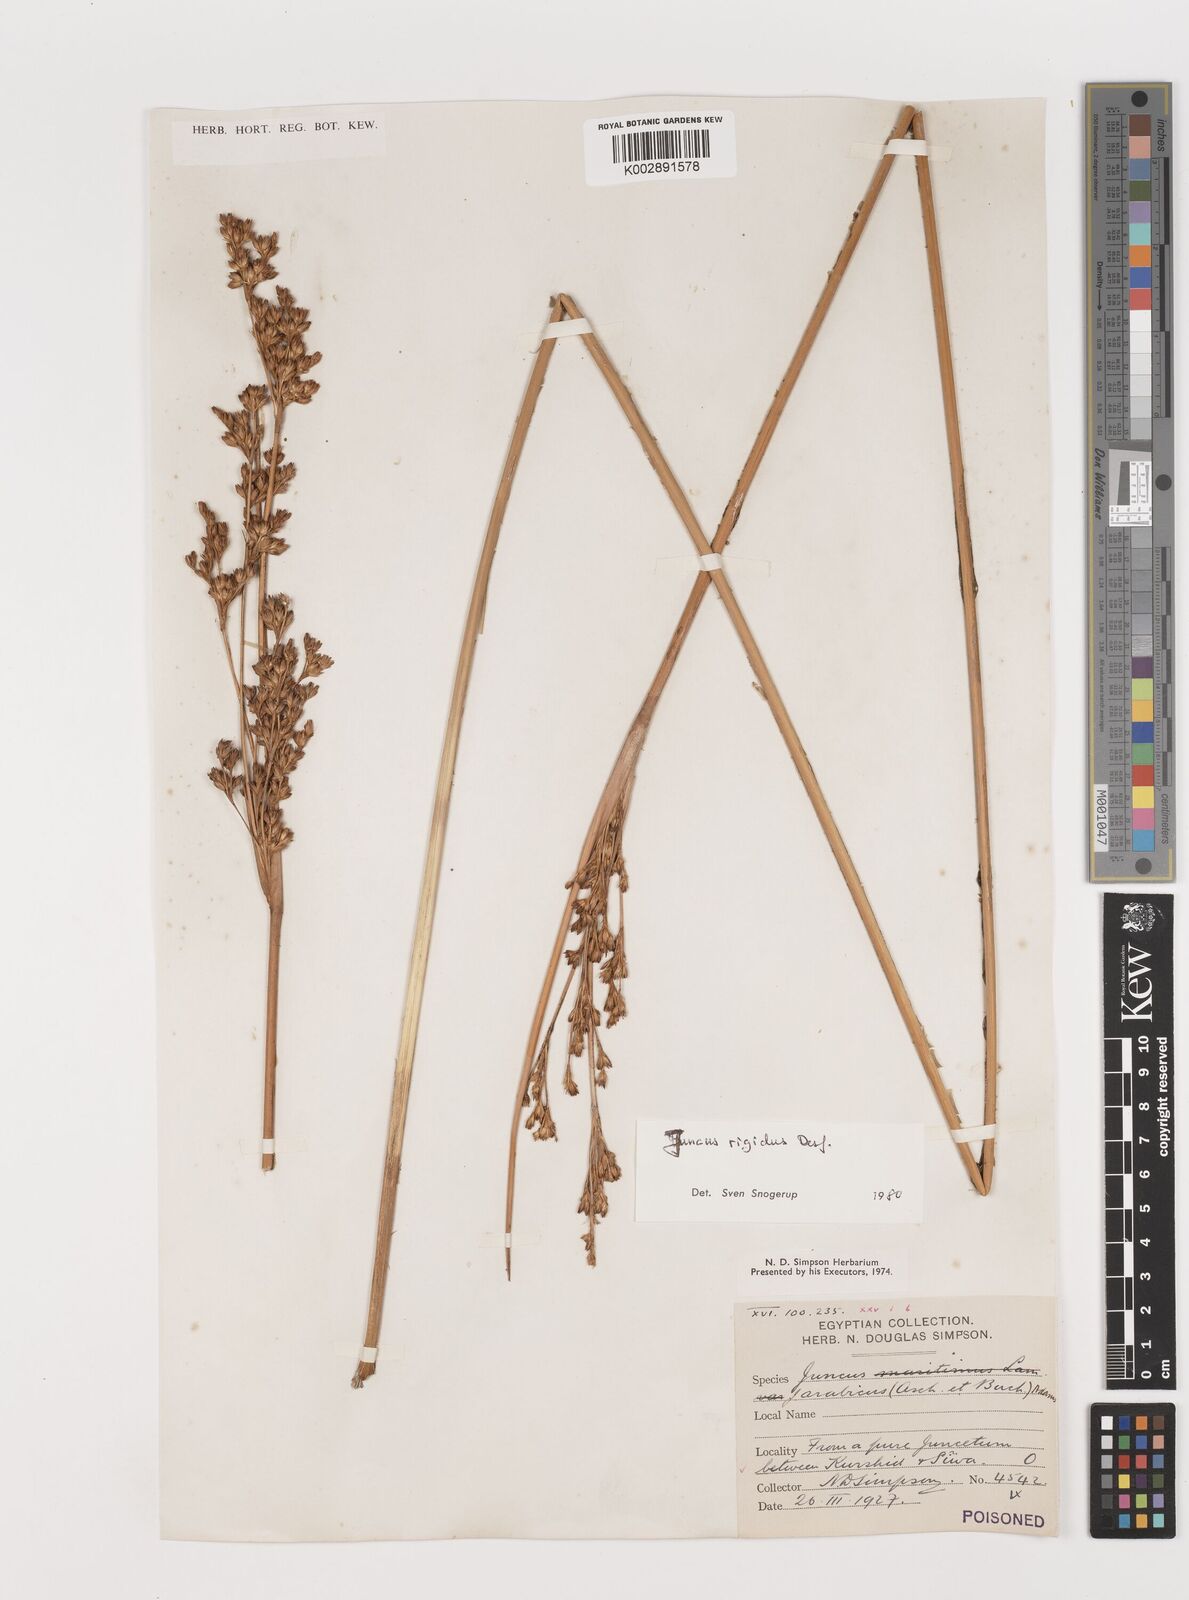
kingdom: Plantae
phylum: Tracheophyta
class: Liliopsida
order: Poales
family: Juncaceae
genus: Juncus
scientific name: Juncus rigidus
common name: Hard sea rush
